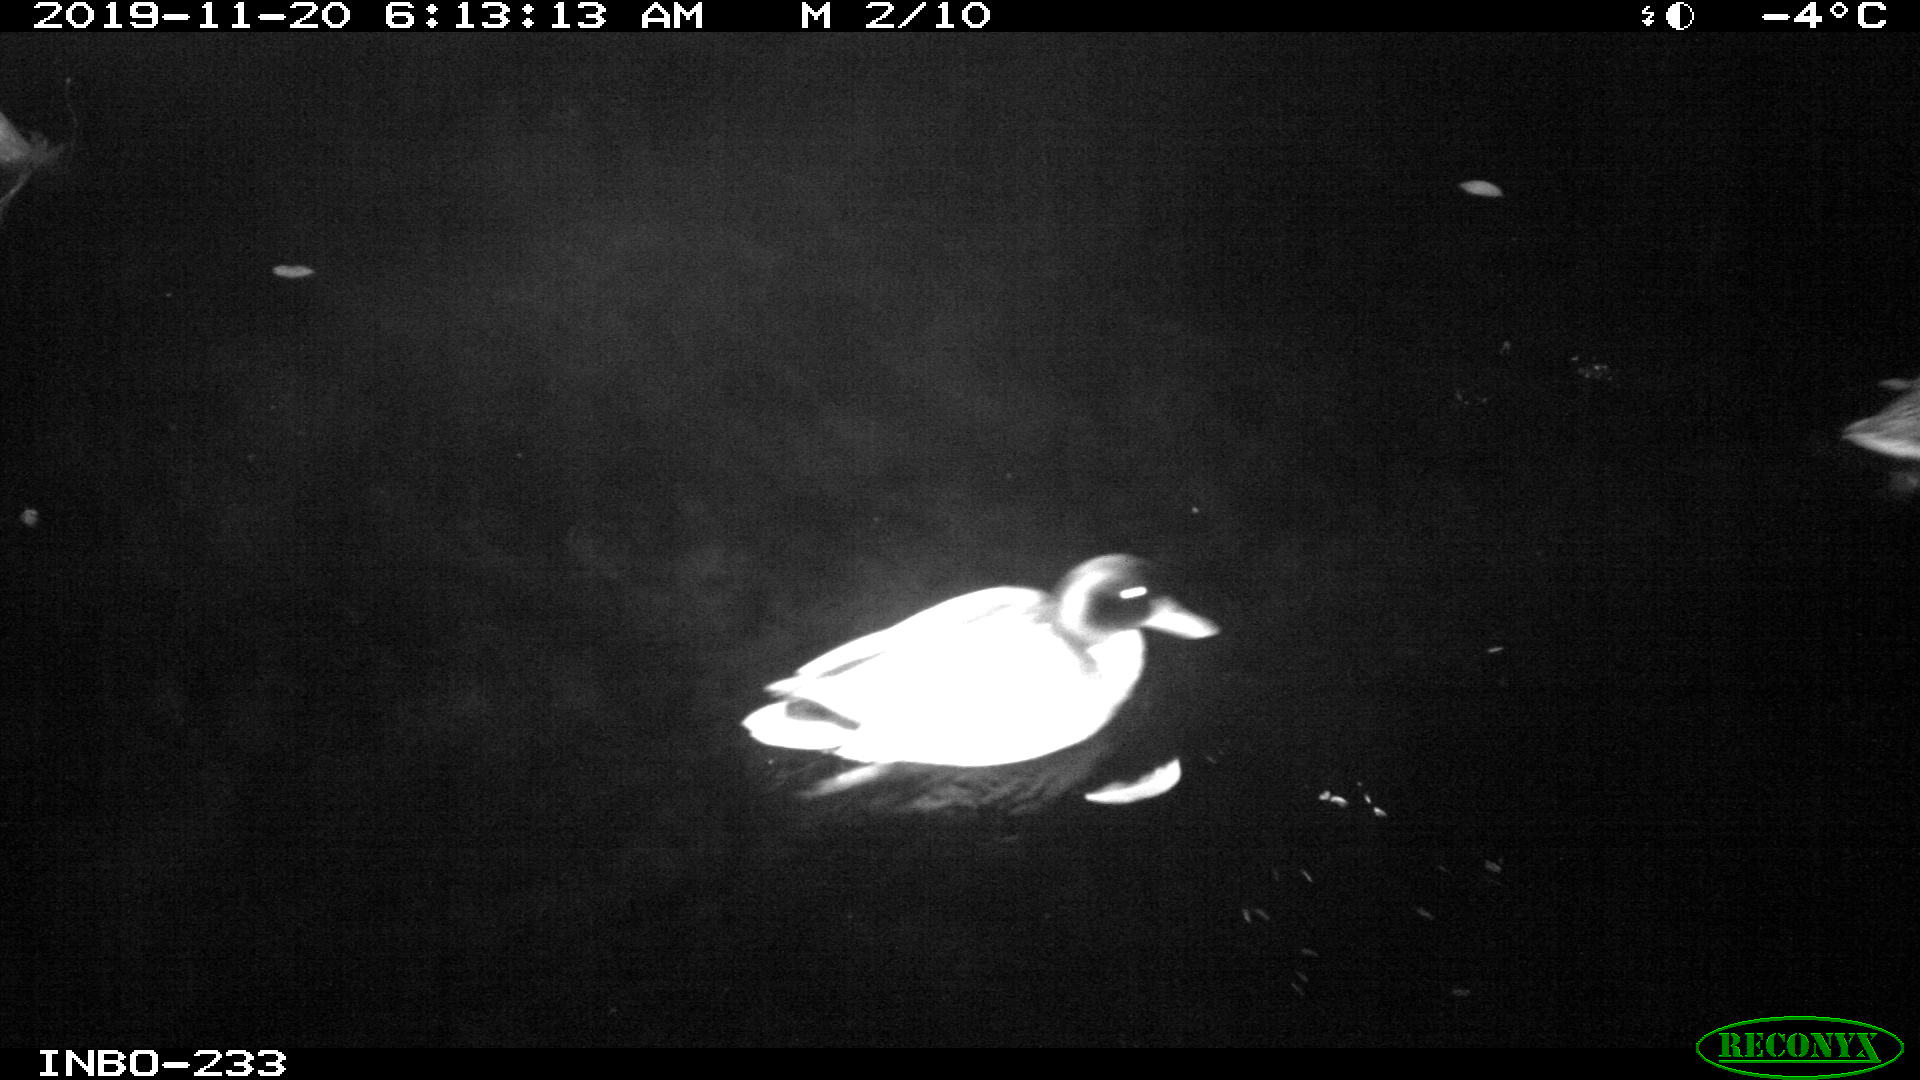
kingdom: Animalia
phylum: Chordata
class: Aves
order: Anseriformes
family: Anatidae
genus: Anas
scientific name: Anas platyrhynchos
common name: Mallard
